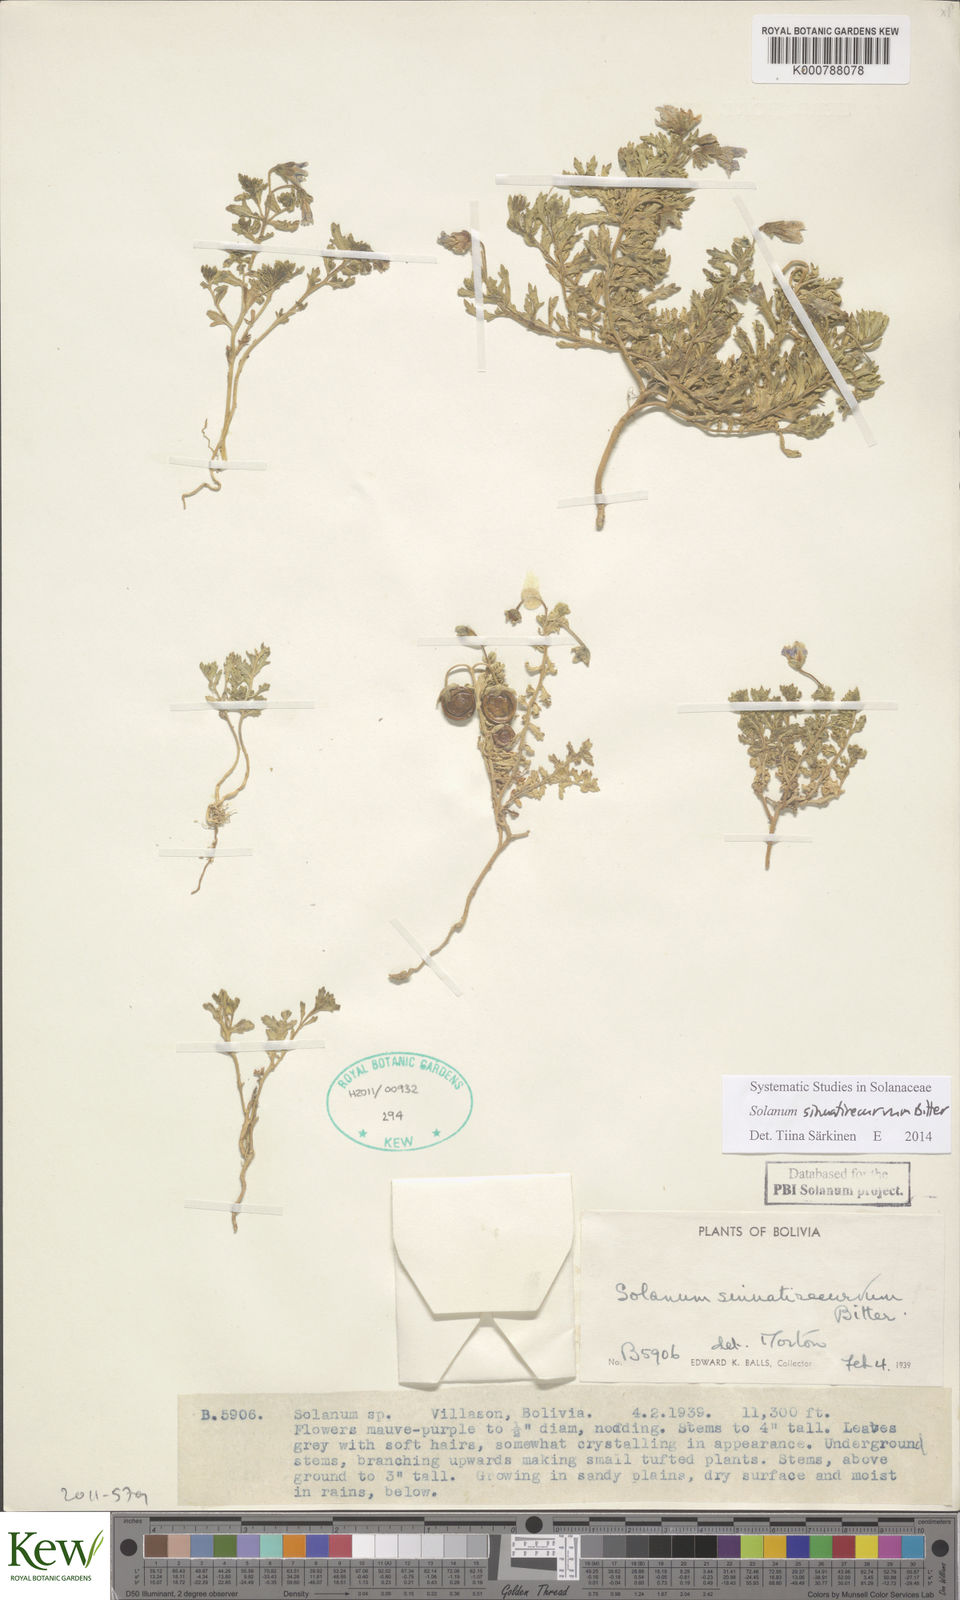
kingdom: Plantae
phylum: Tracheophyta
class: Magnoliopsida
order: Solanales
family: Solanaceae
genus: Solanum
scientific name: Solanum sinuatirecurvum
